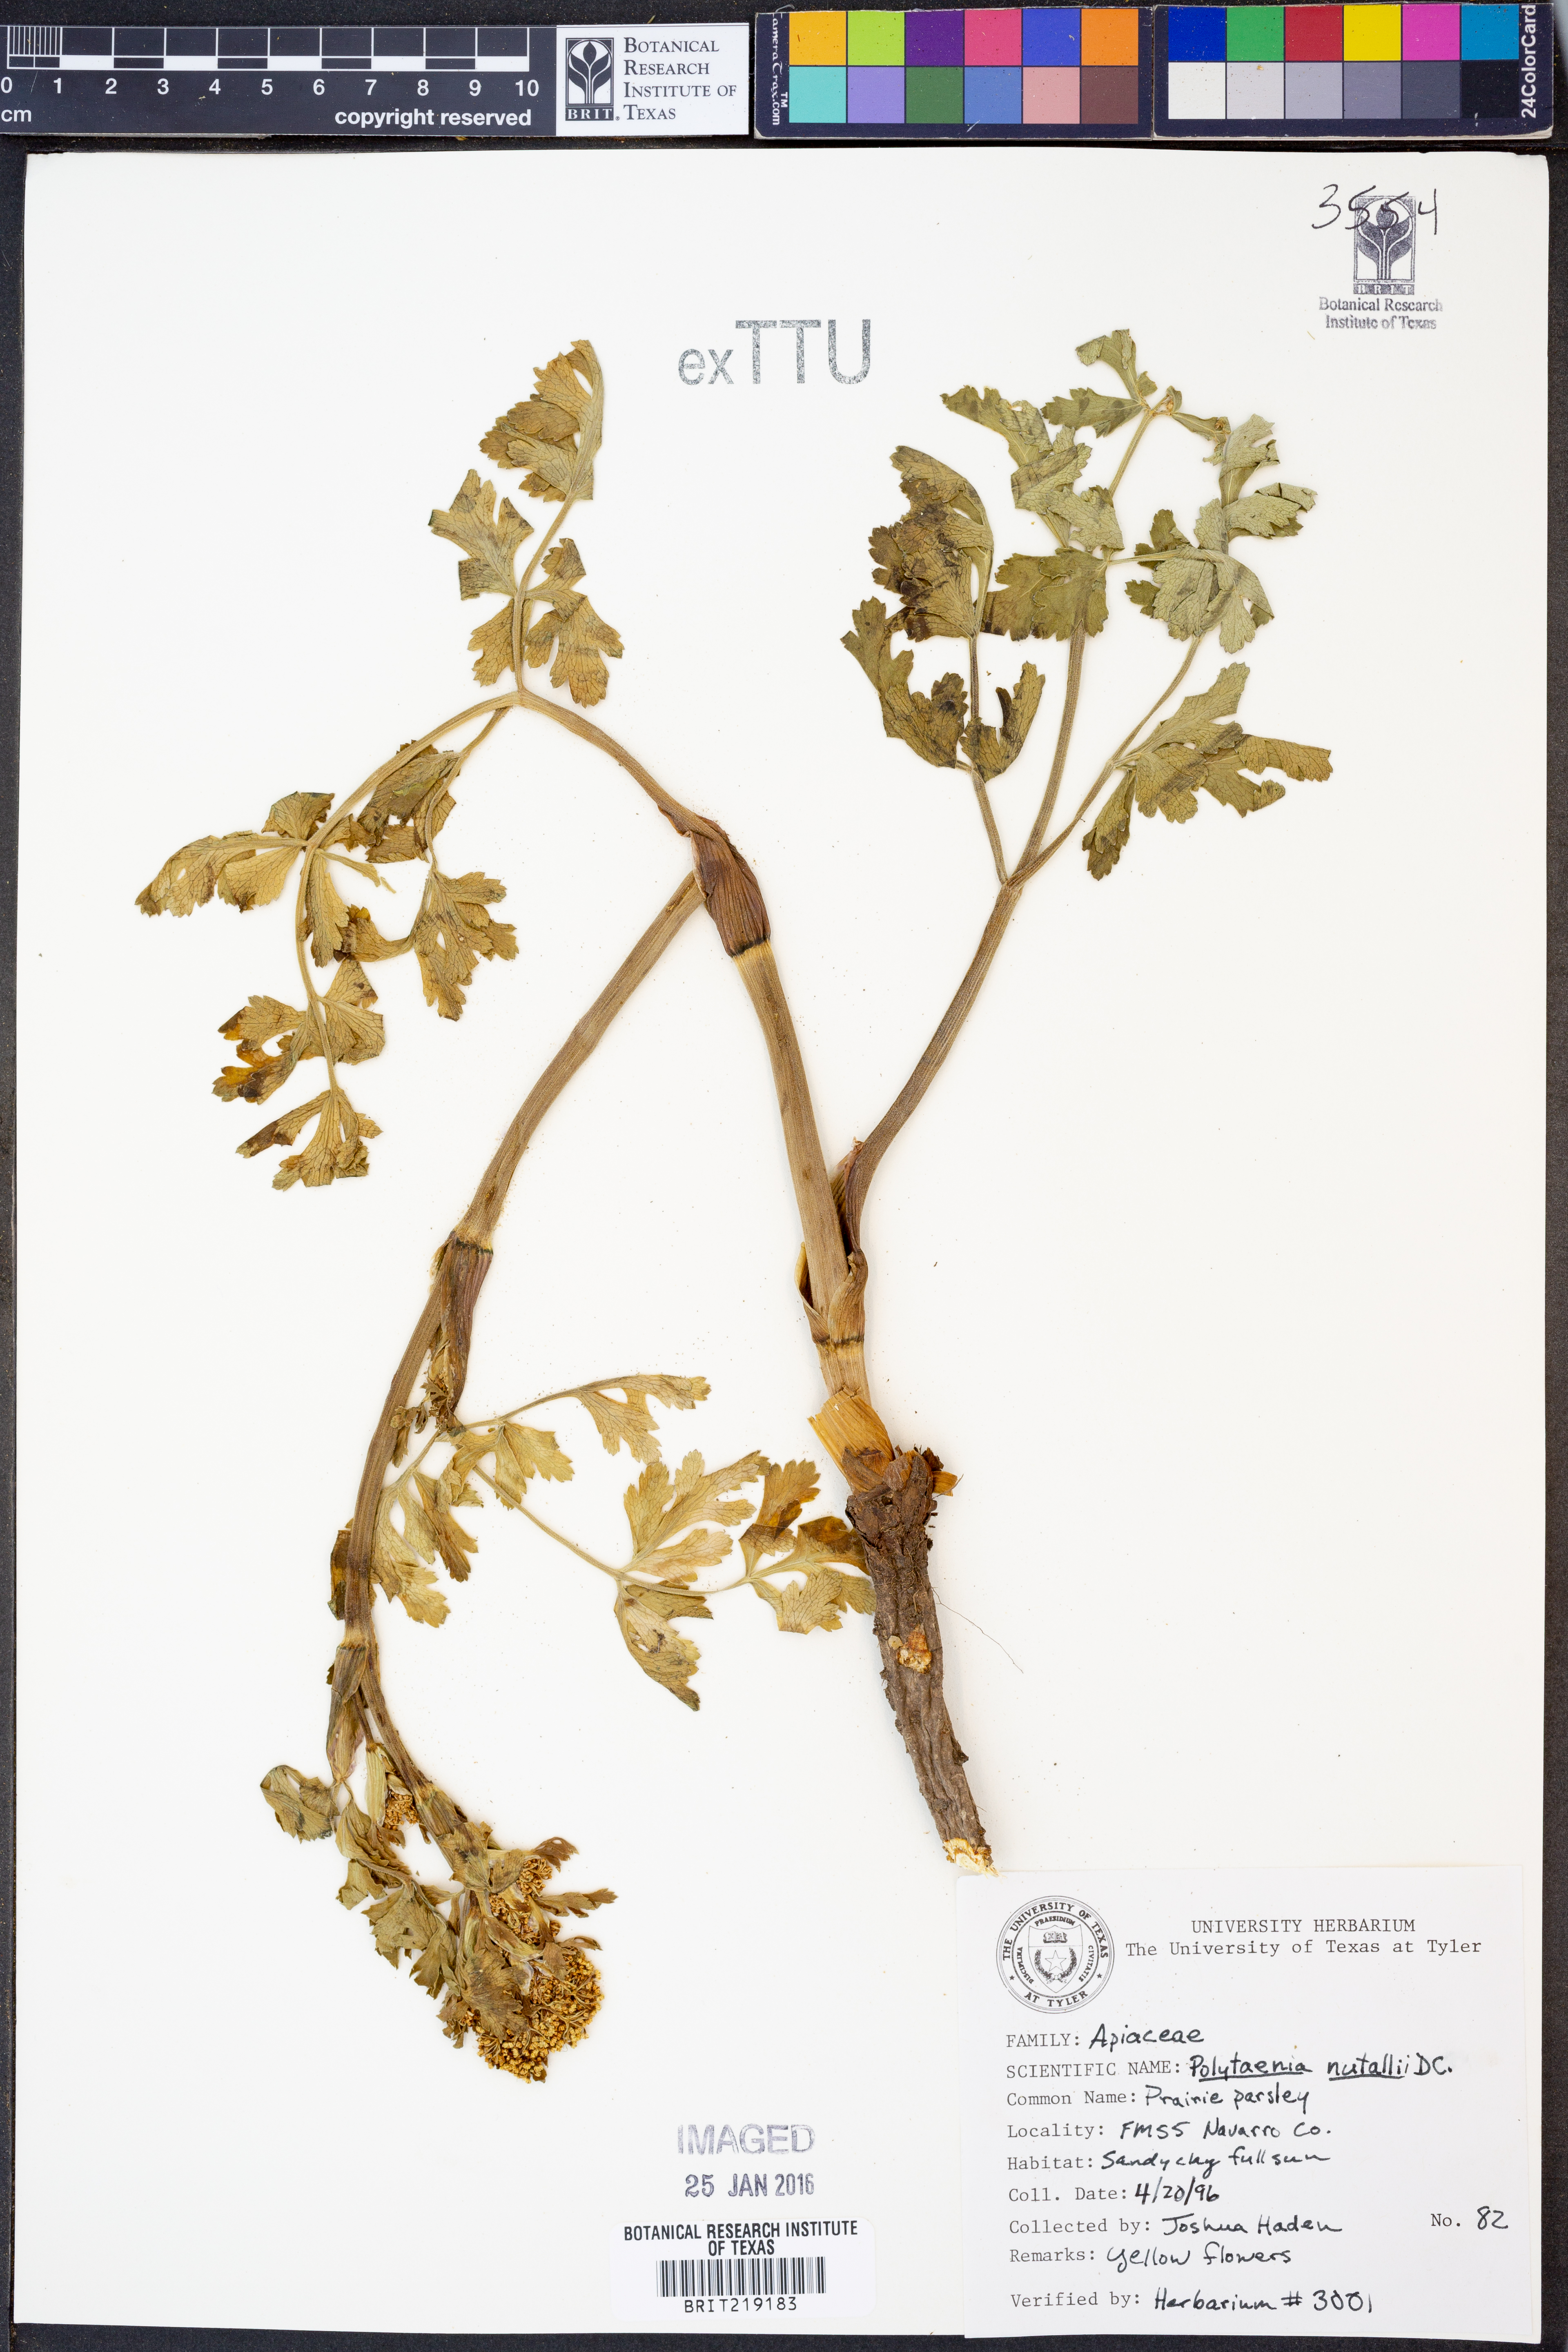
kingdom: Plantae
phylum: Tracheophyta
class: Magnoliopsida
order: Apiales
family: Apiaceae
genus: Polytaenia
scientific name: Polytaenia nuttallii
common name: Prairie-parsley
